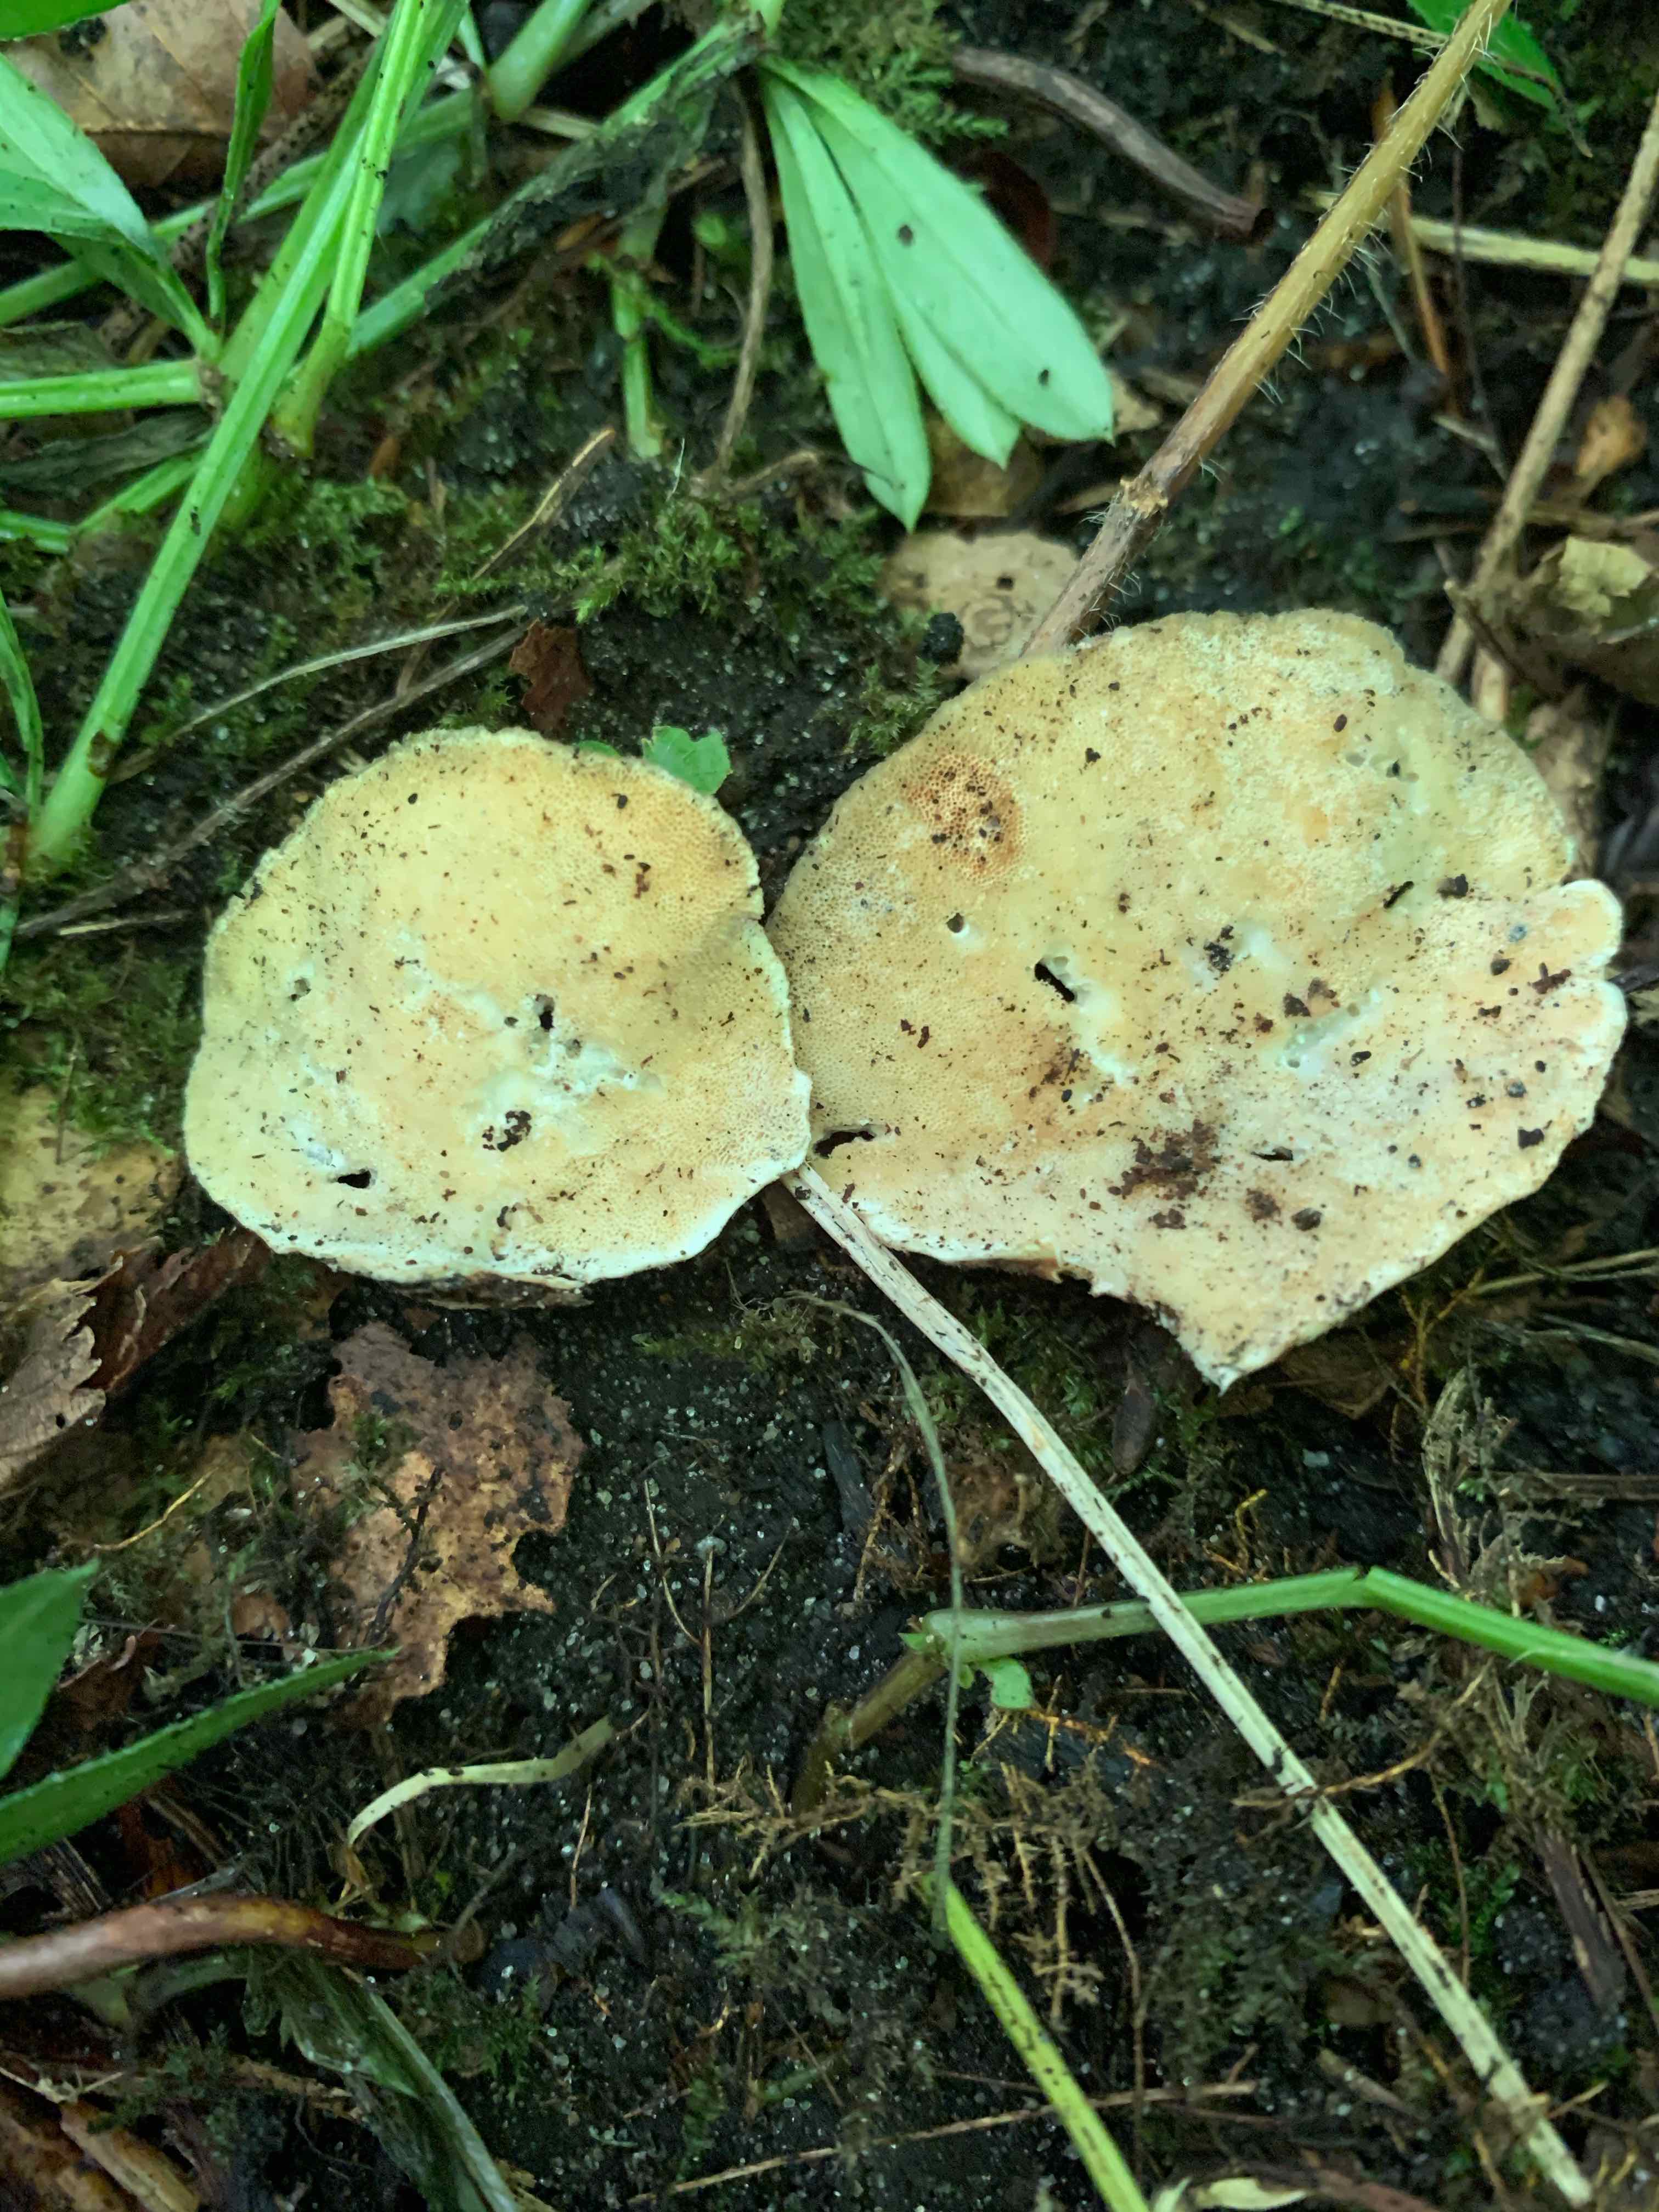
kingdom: Fungi
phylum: Basidiomycota
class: Agaricomycetes
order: Polyporales
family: Polyporaceae
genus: Trametes
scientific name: Trametes
